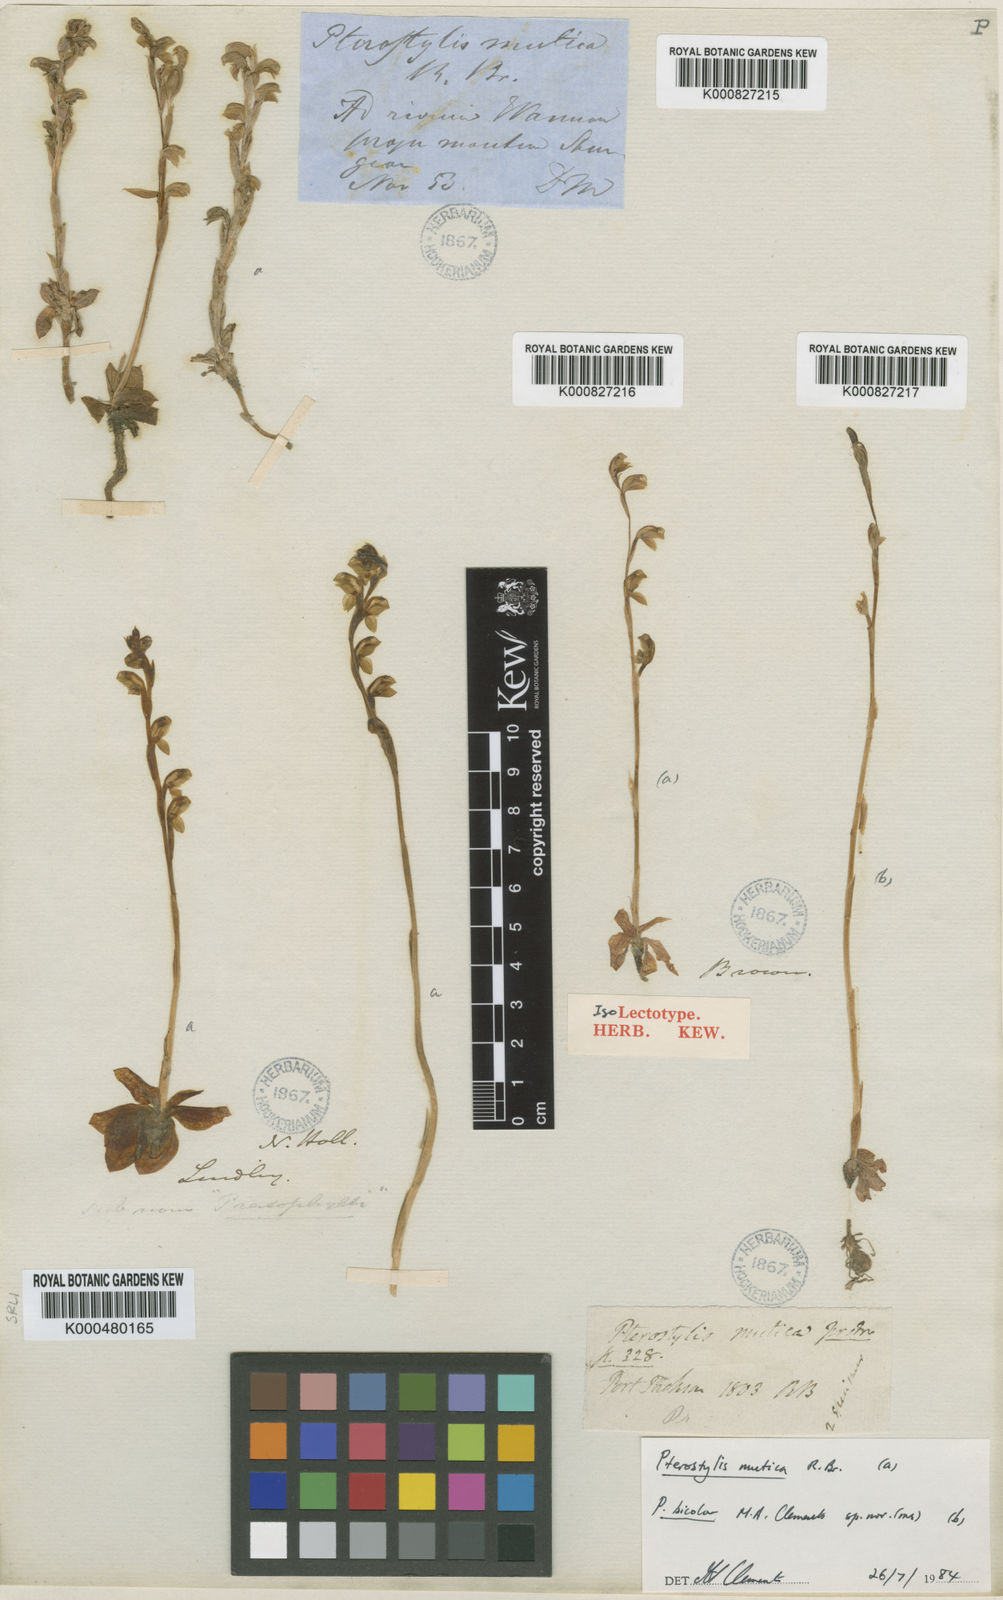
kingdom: Plantae
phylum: Tracheophyta
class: Liliopsida
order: Asparagales
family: Orchidaceae
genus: Pterostylis
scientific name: Pterostylis mutica
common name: Midget greenhood
